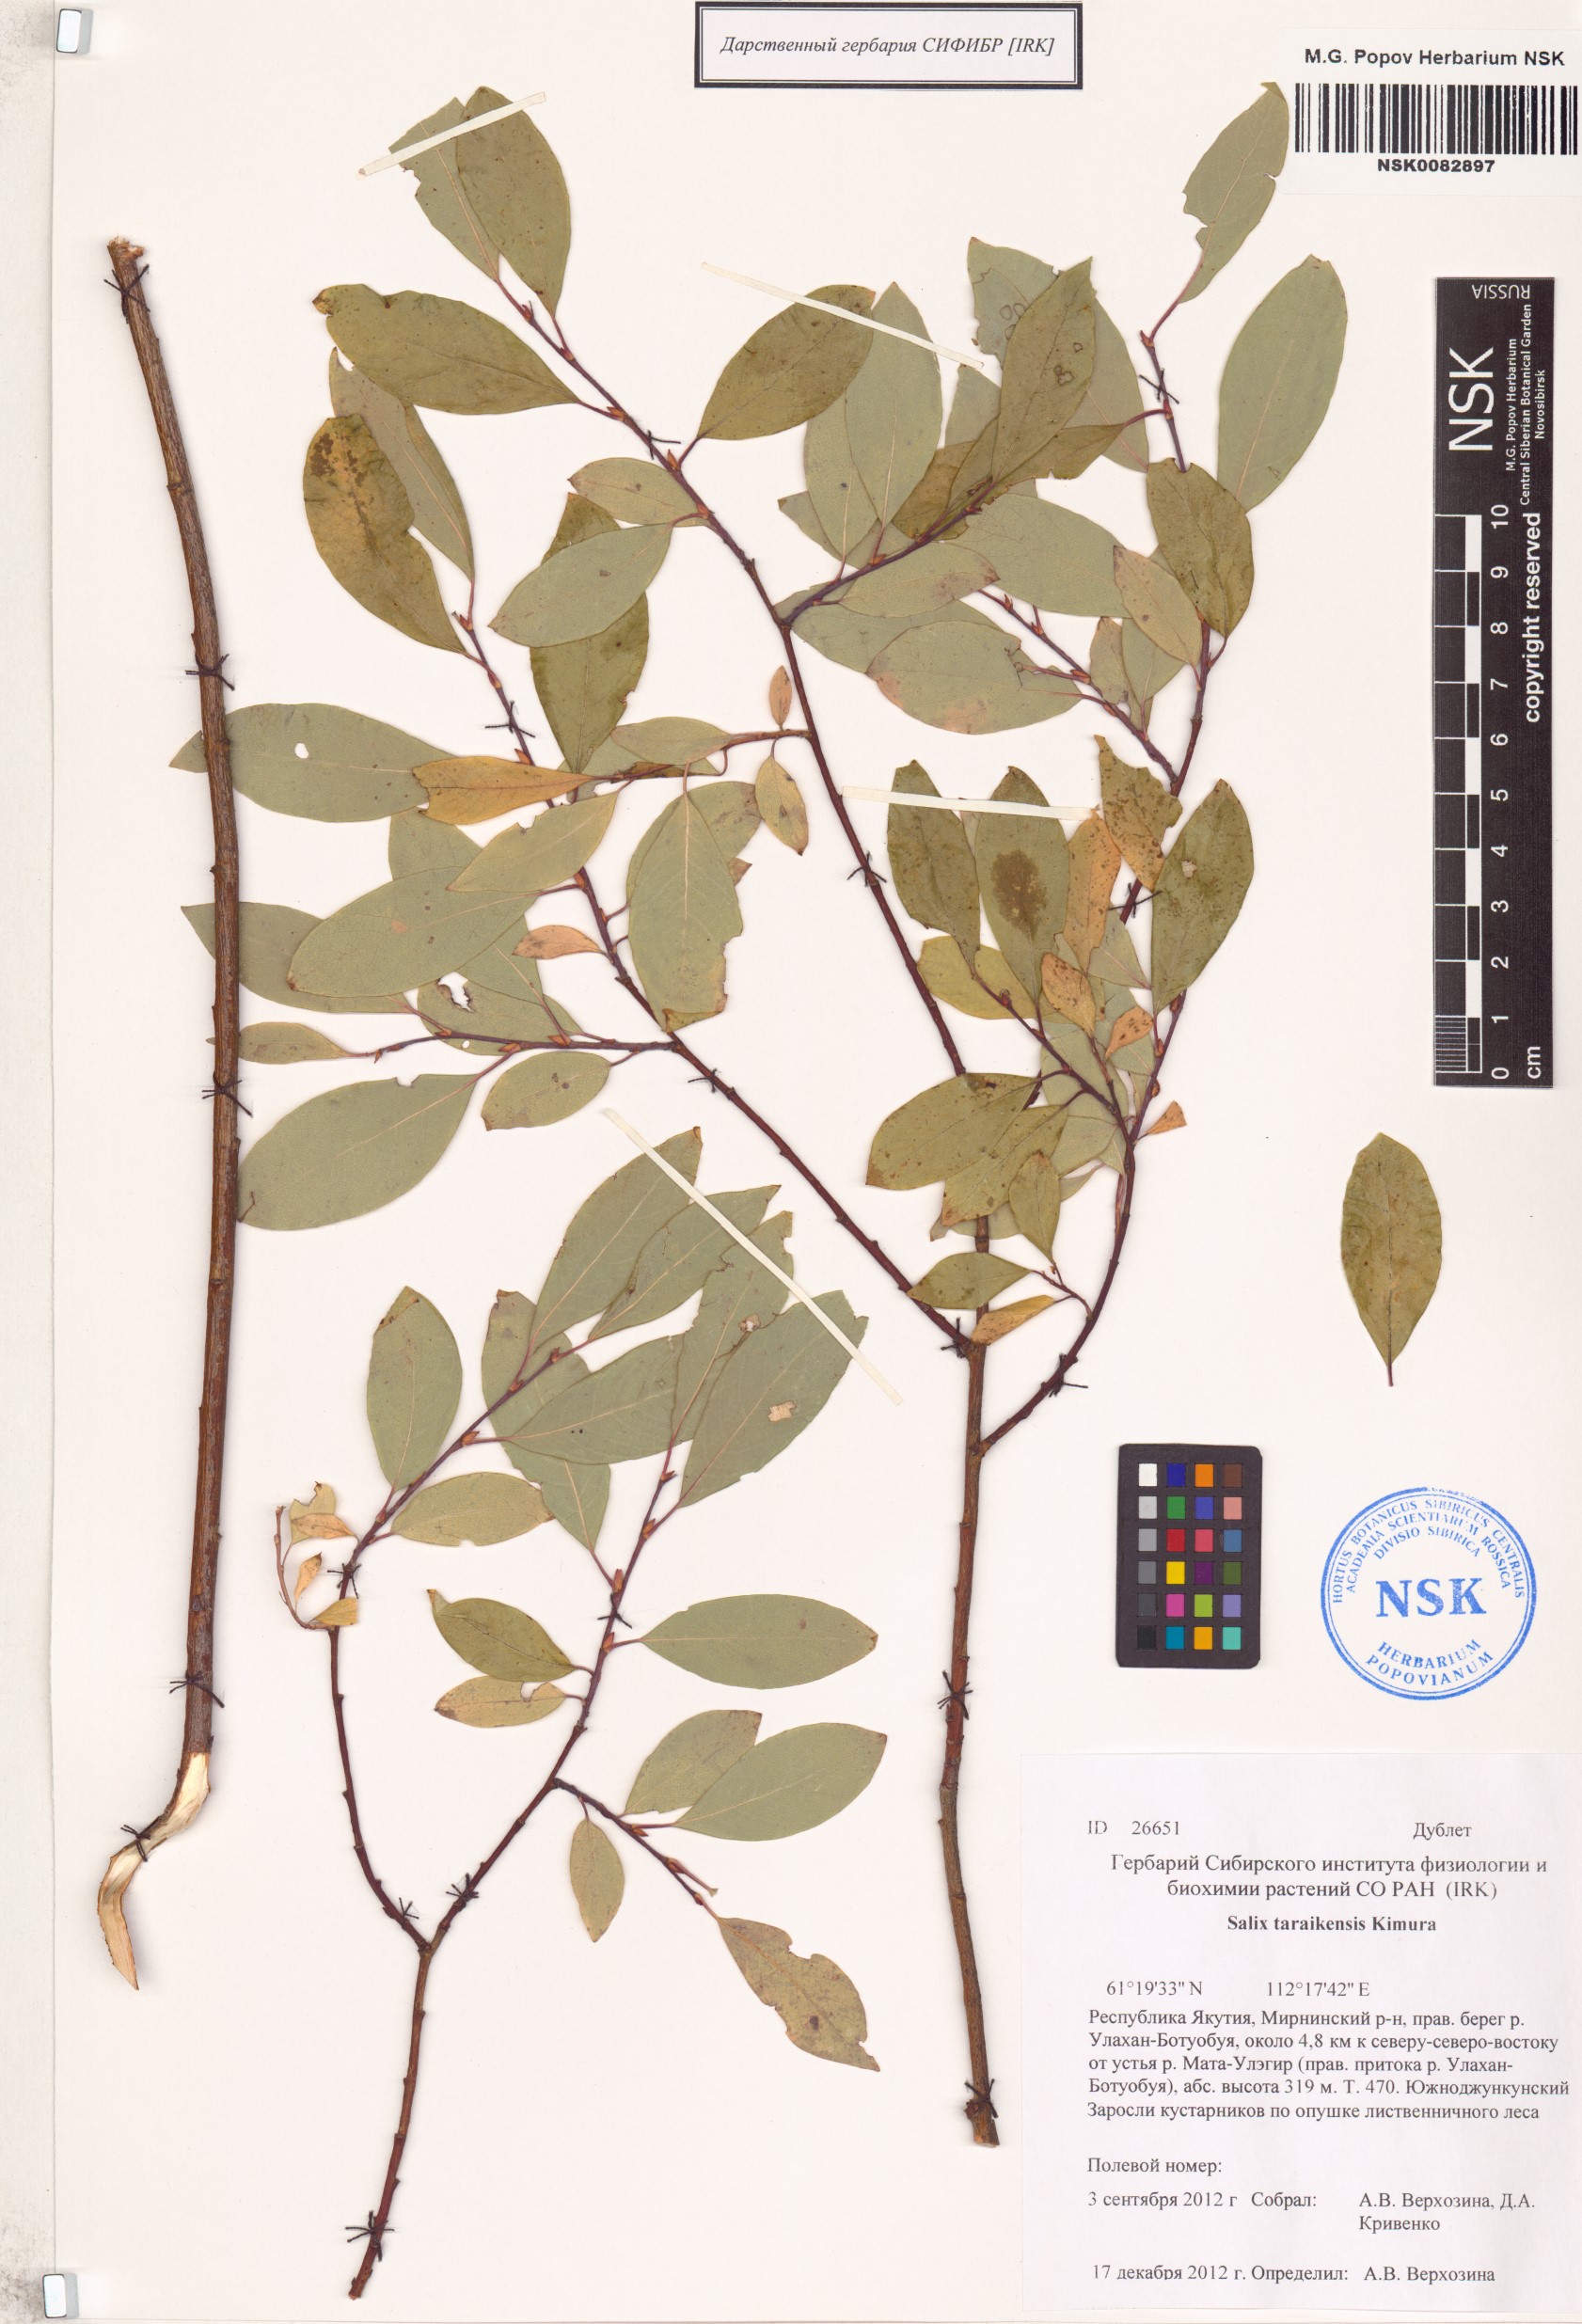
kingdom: Plantae
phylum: Tracheophyta
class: Magnoliopsida
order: Malpighiales
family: Salicaceae
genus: Salix
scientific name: Salix taraikensis
